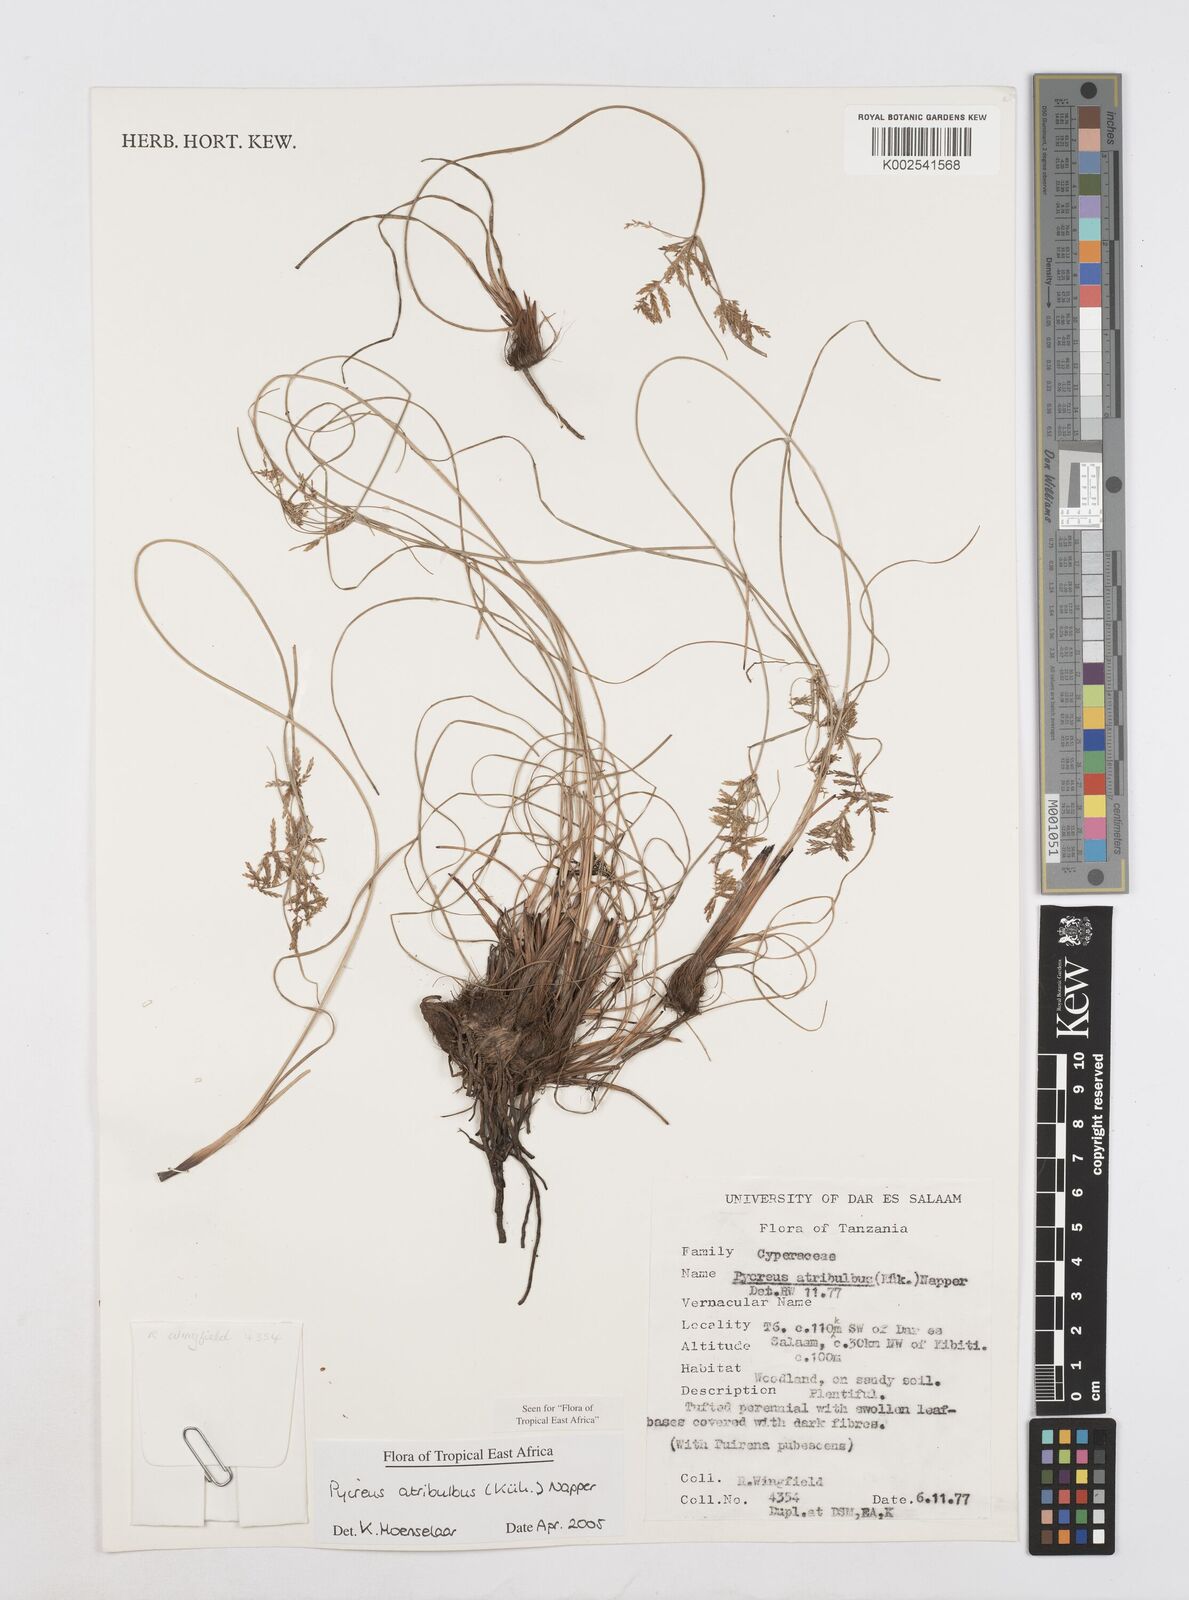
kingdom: Plantae
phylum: Tracheophyta
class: Liliopsida
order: Poales
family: Cyperaceae
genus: Cyperus
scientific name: Cyperus intactus
